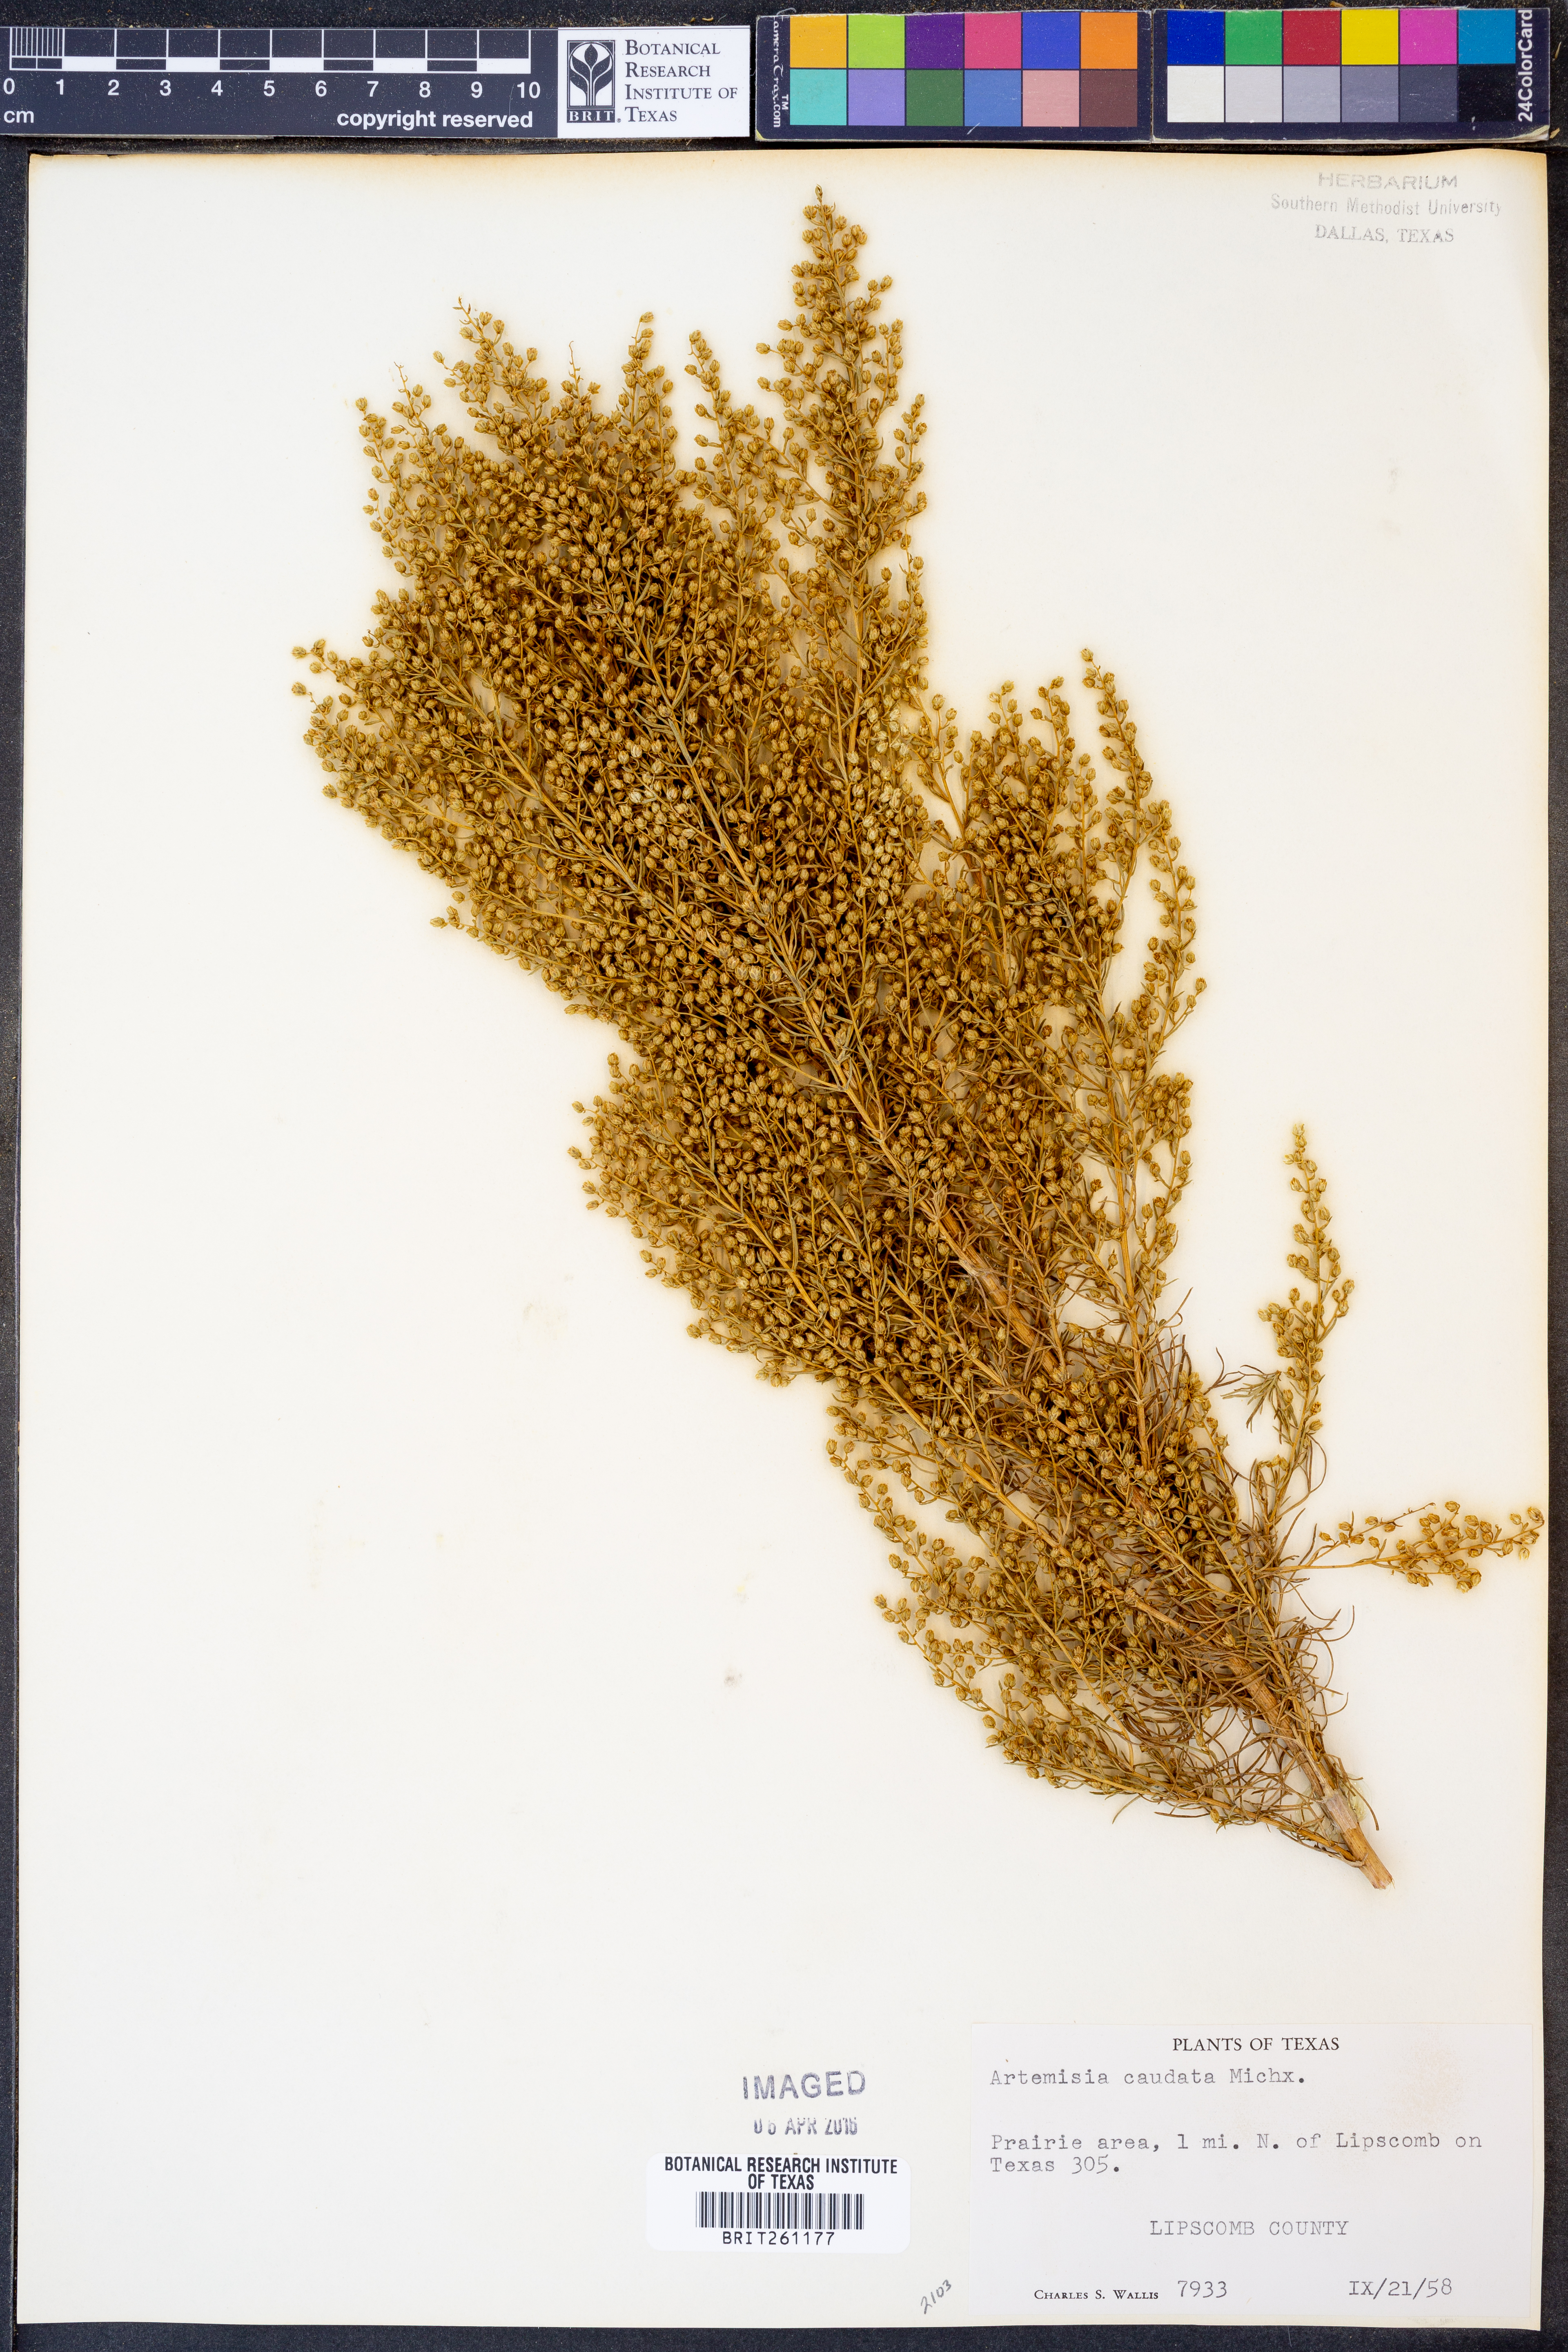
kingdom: Plantae
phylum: Tracheophyta
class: Magnoliopsida
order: Asterales
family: Asteraceae
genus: Artemisia
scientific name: Artemisia campestris
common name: Field wormwood
